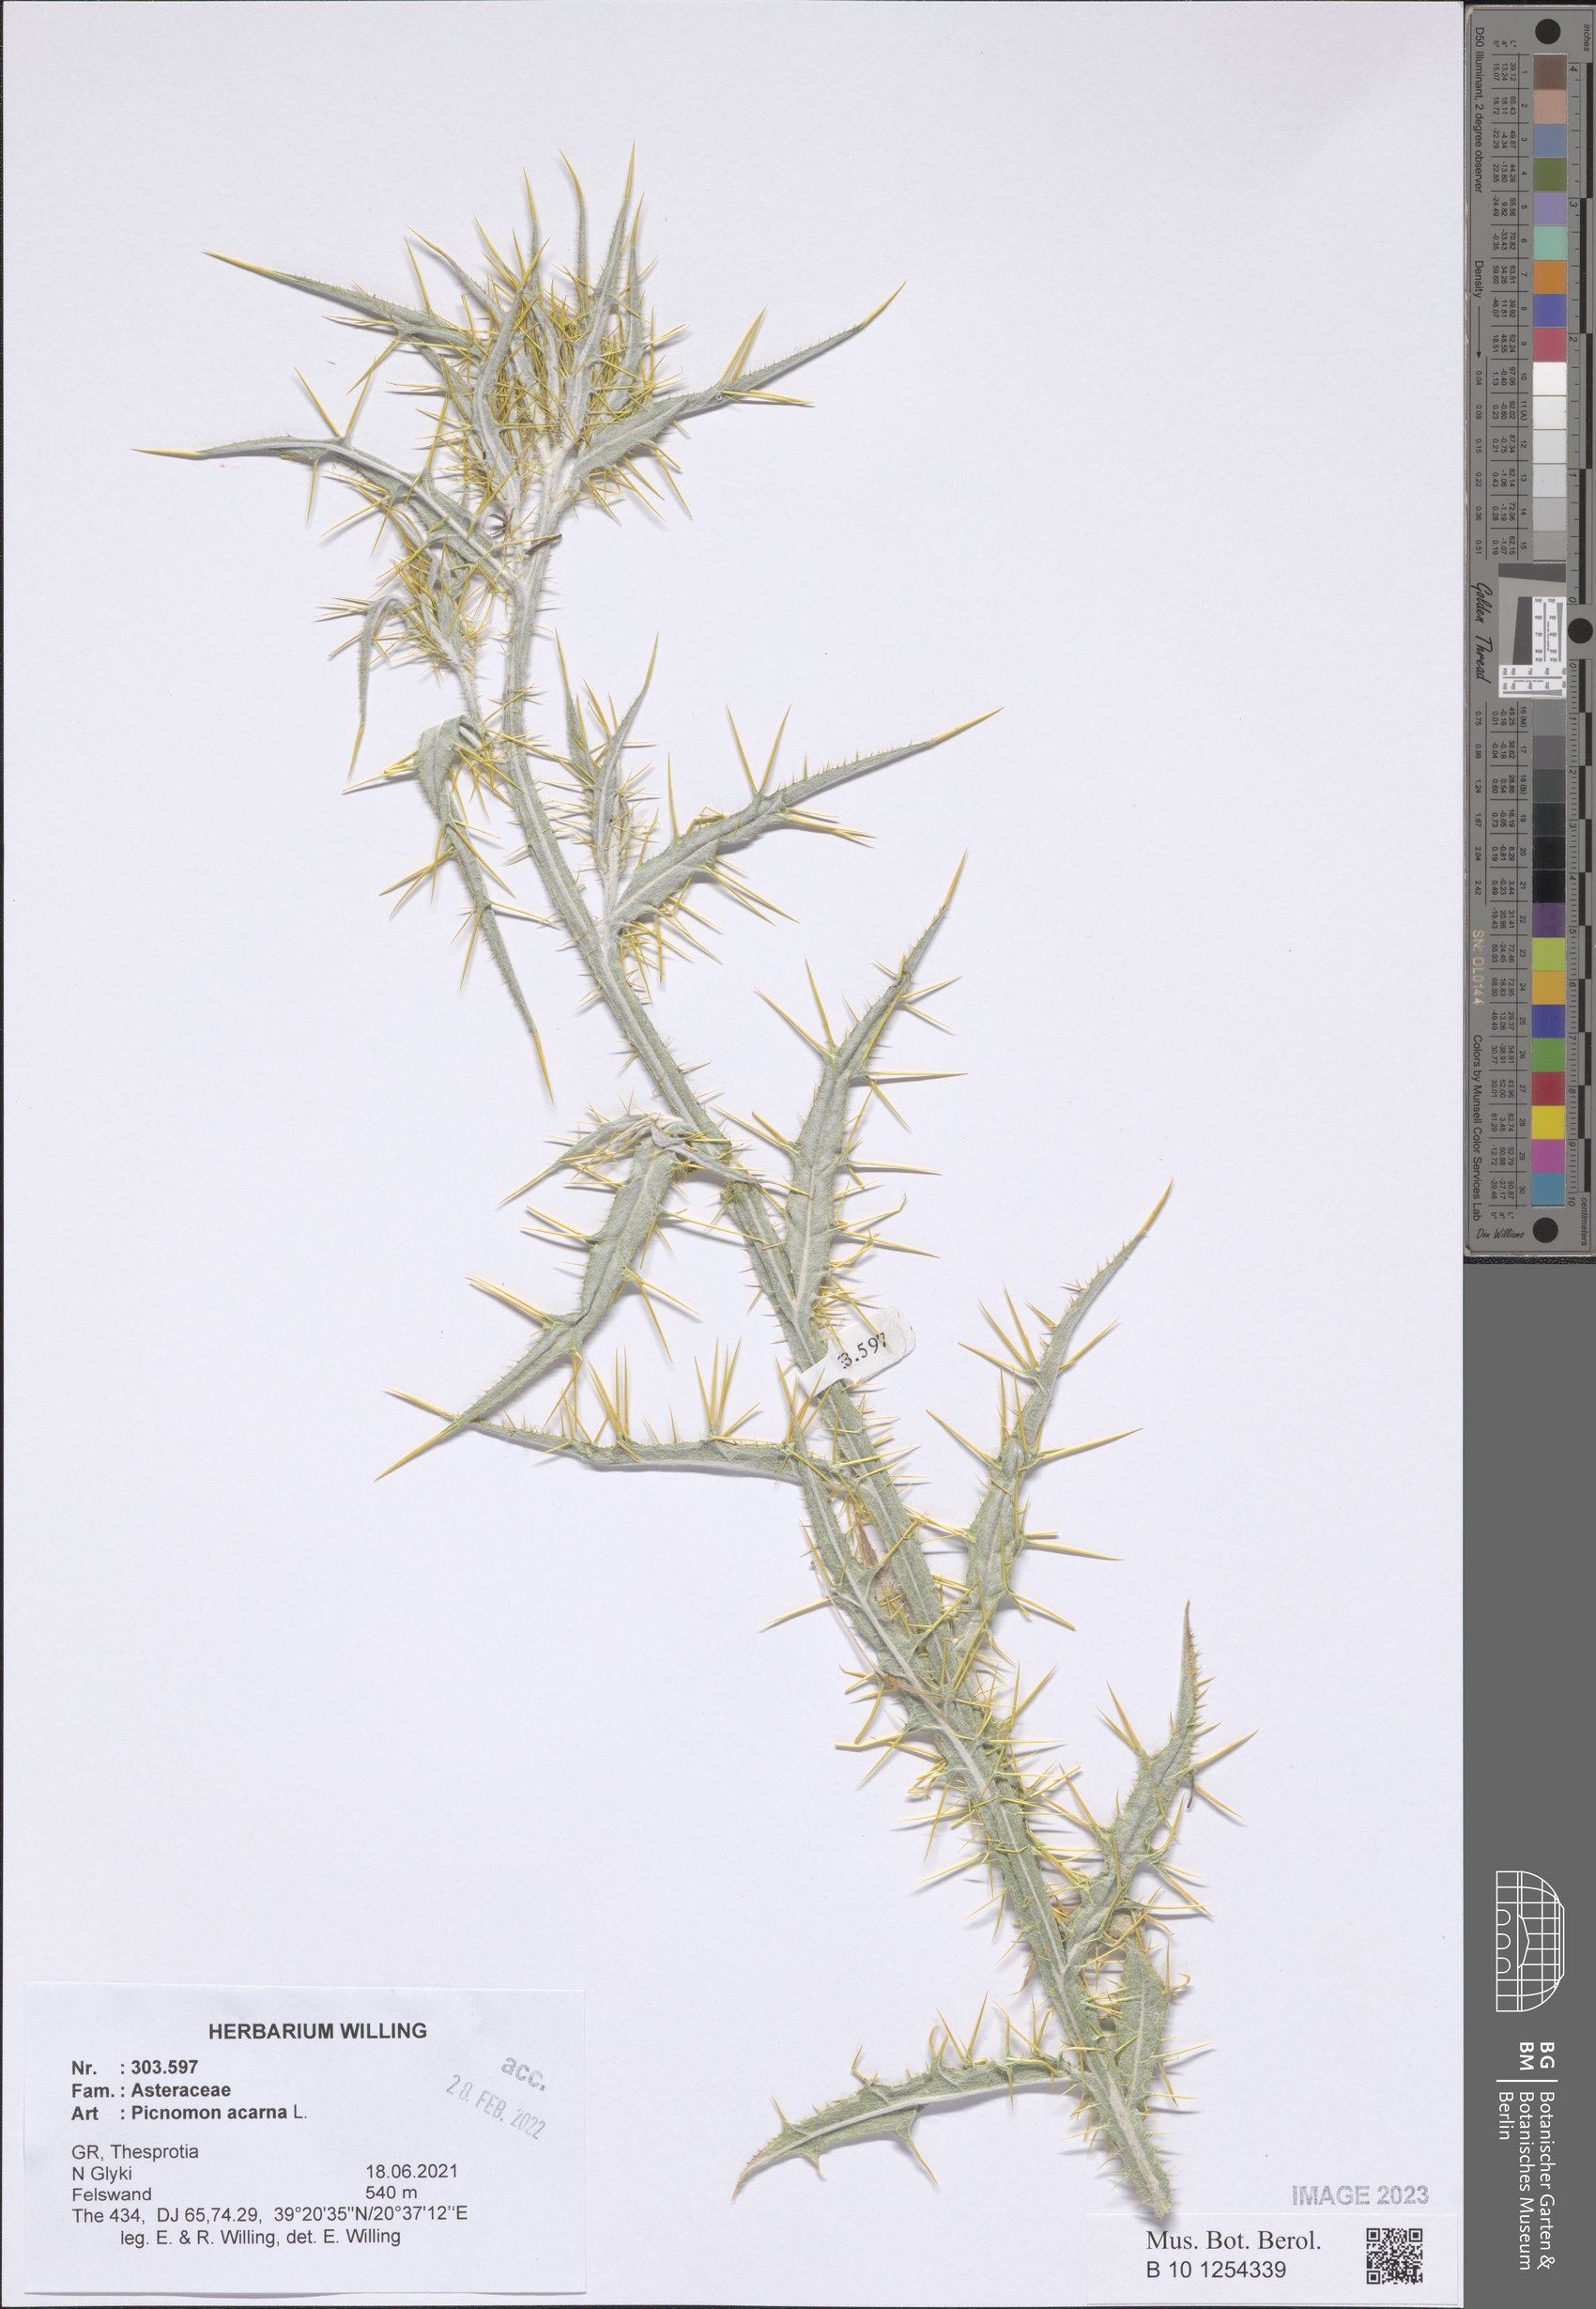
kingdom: Plantae
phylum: Tracheophyta
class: Magnoliopsida
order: Asterales
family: Asteraceae
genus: Picnomon
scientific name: Picnomon acarna
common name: Soldier thistle
